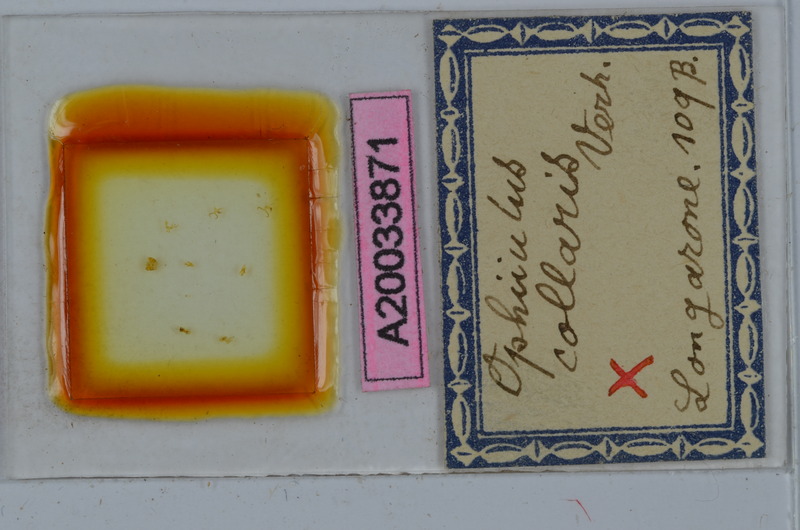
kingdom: Animalia
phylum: Arthropoda
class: Diplopoda
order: Julida
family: Julidae
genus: Ophyiulus
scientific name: Ophyiulus collaris
